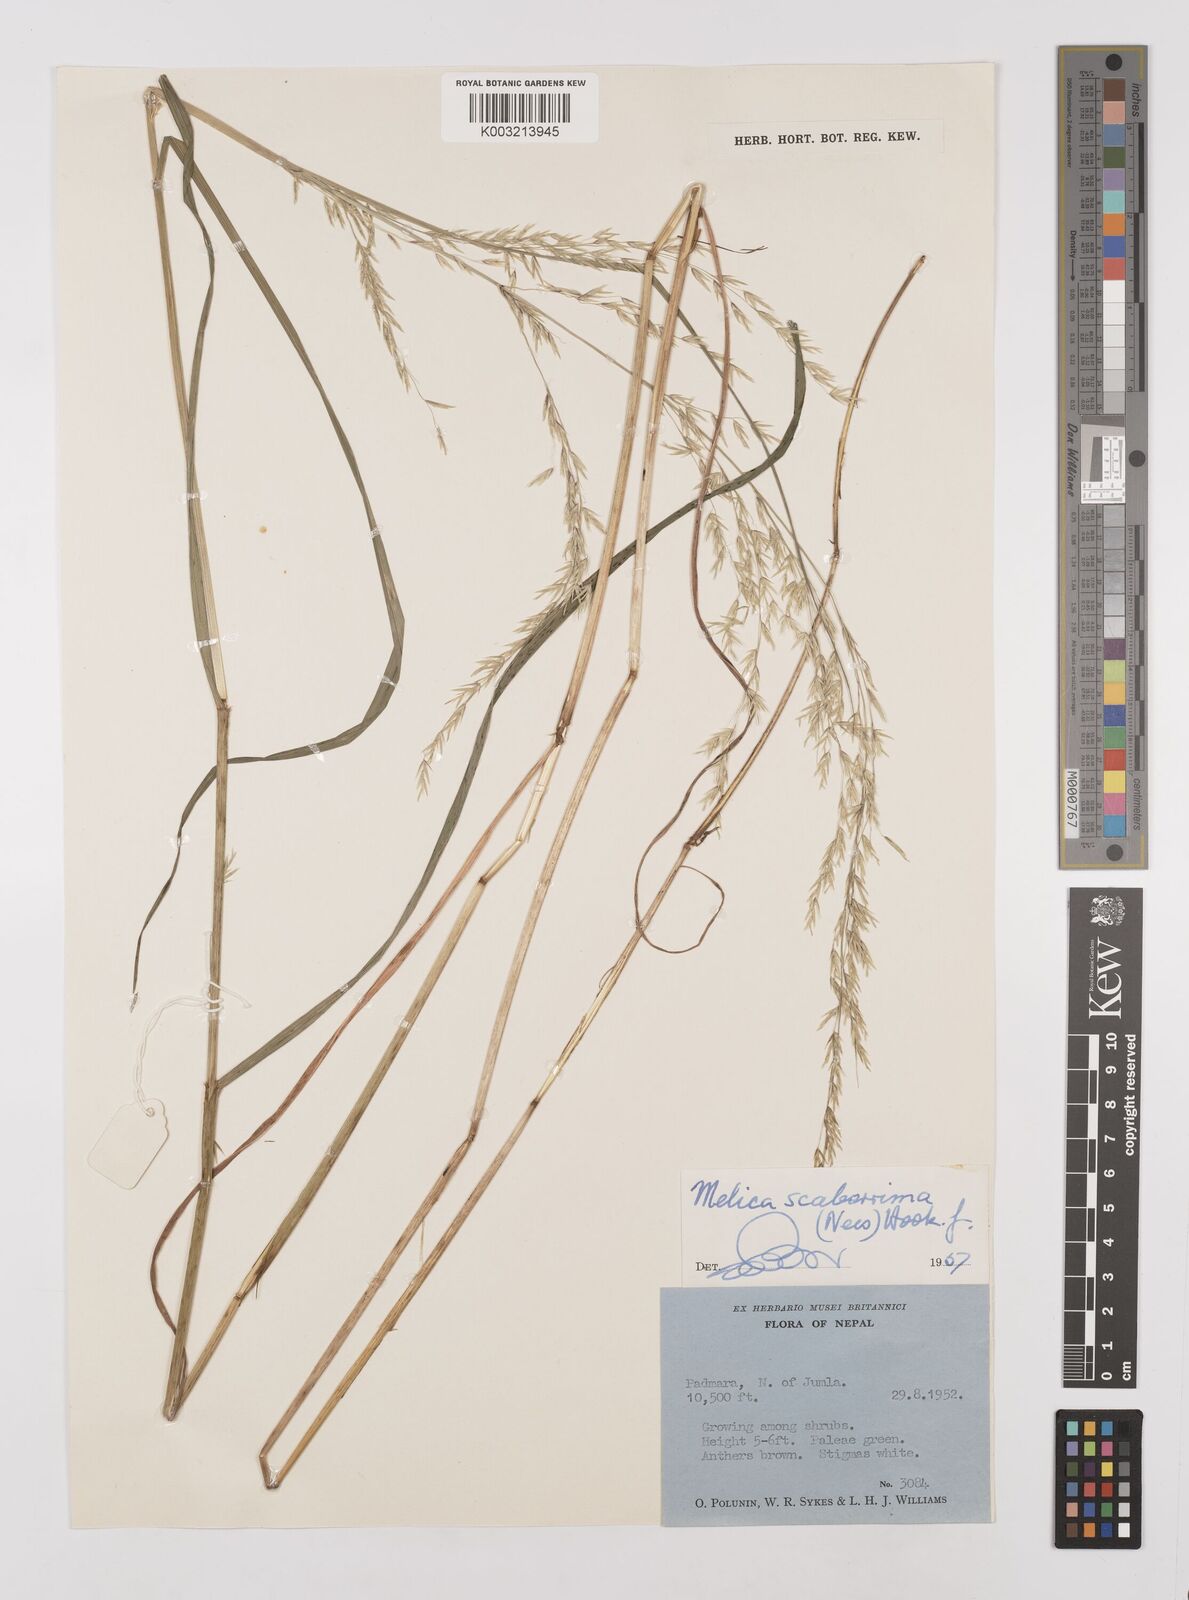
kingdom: Plantae
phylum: Tracheophyta
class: Liliopsida
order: Poales
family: Poaceae
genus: Melica
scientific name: Melica scaberrima
